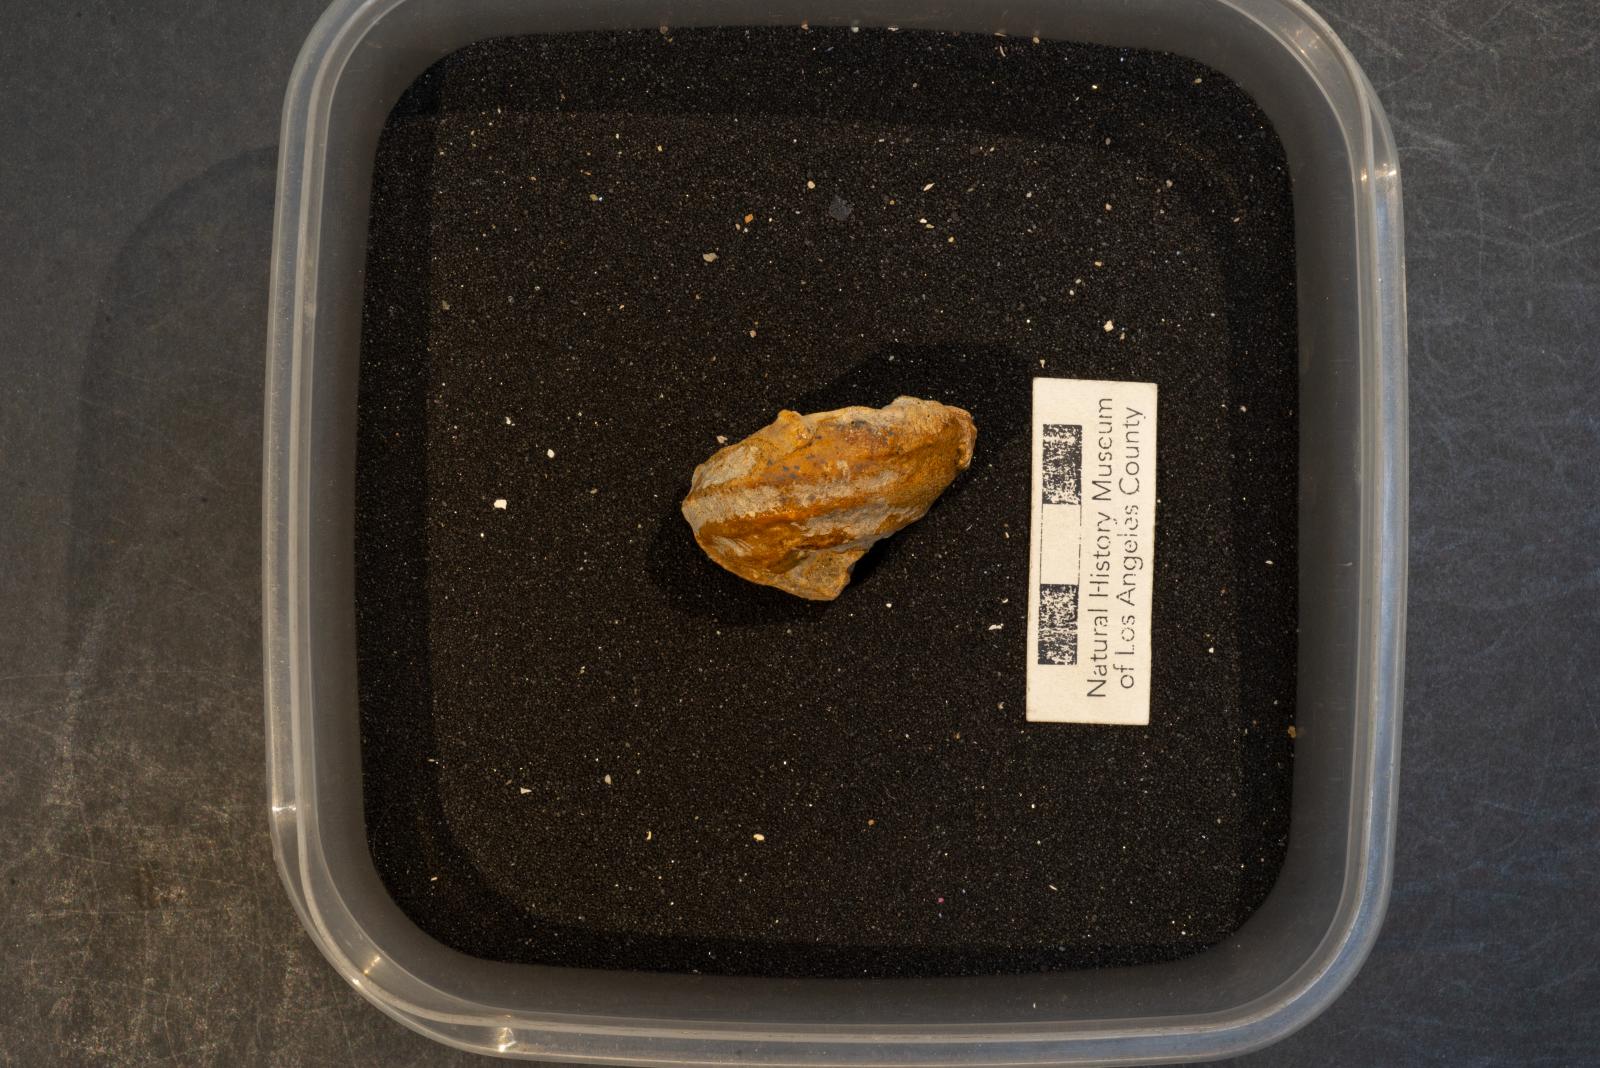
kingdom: Animalia
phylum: Mollusca
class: Gastropoda
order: Littorinimorpha
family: Capulidae
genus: Garzasia
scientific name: Garzasia diabla
